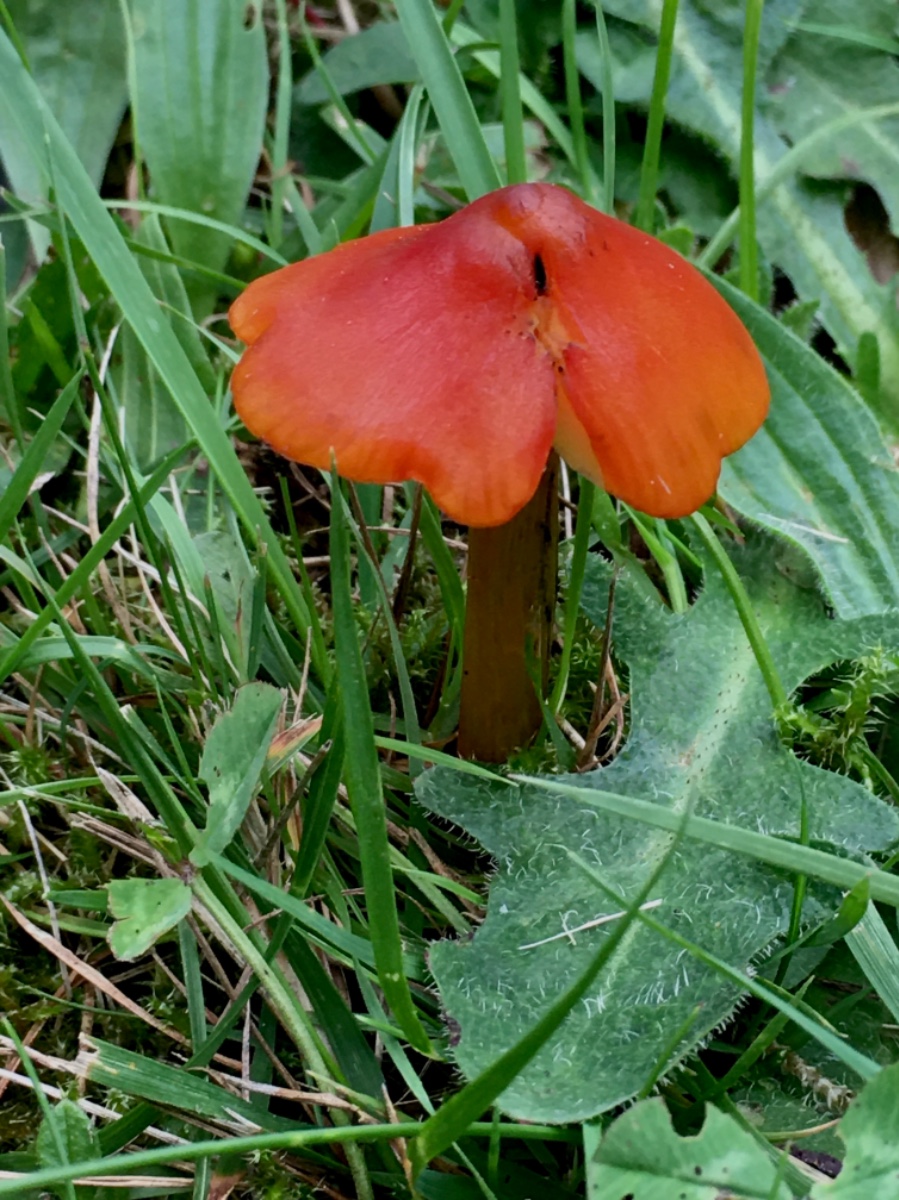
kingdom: Fungi
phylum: Basidiomycota
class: Agaricomycetes
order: Agaricales
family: Hygrophoraceae
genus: Hygrocybe
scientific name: Hygrocybe conica
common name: kegle-vokshat
